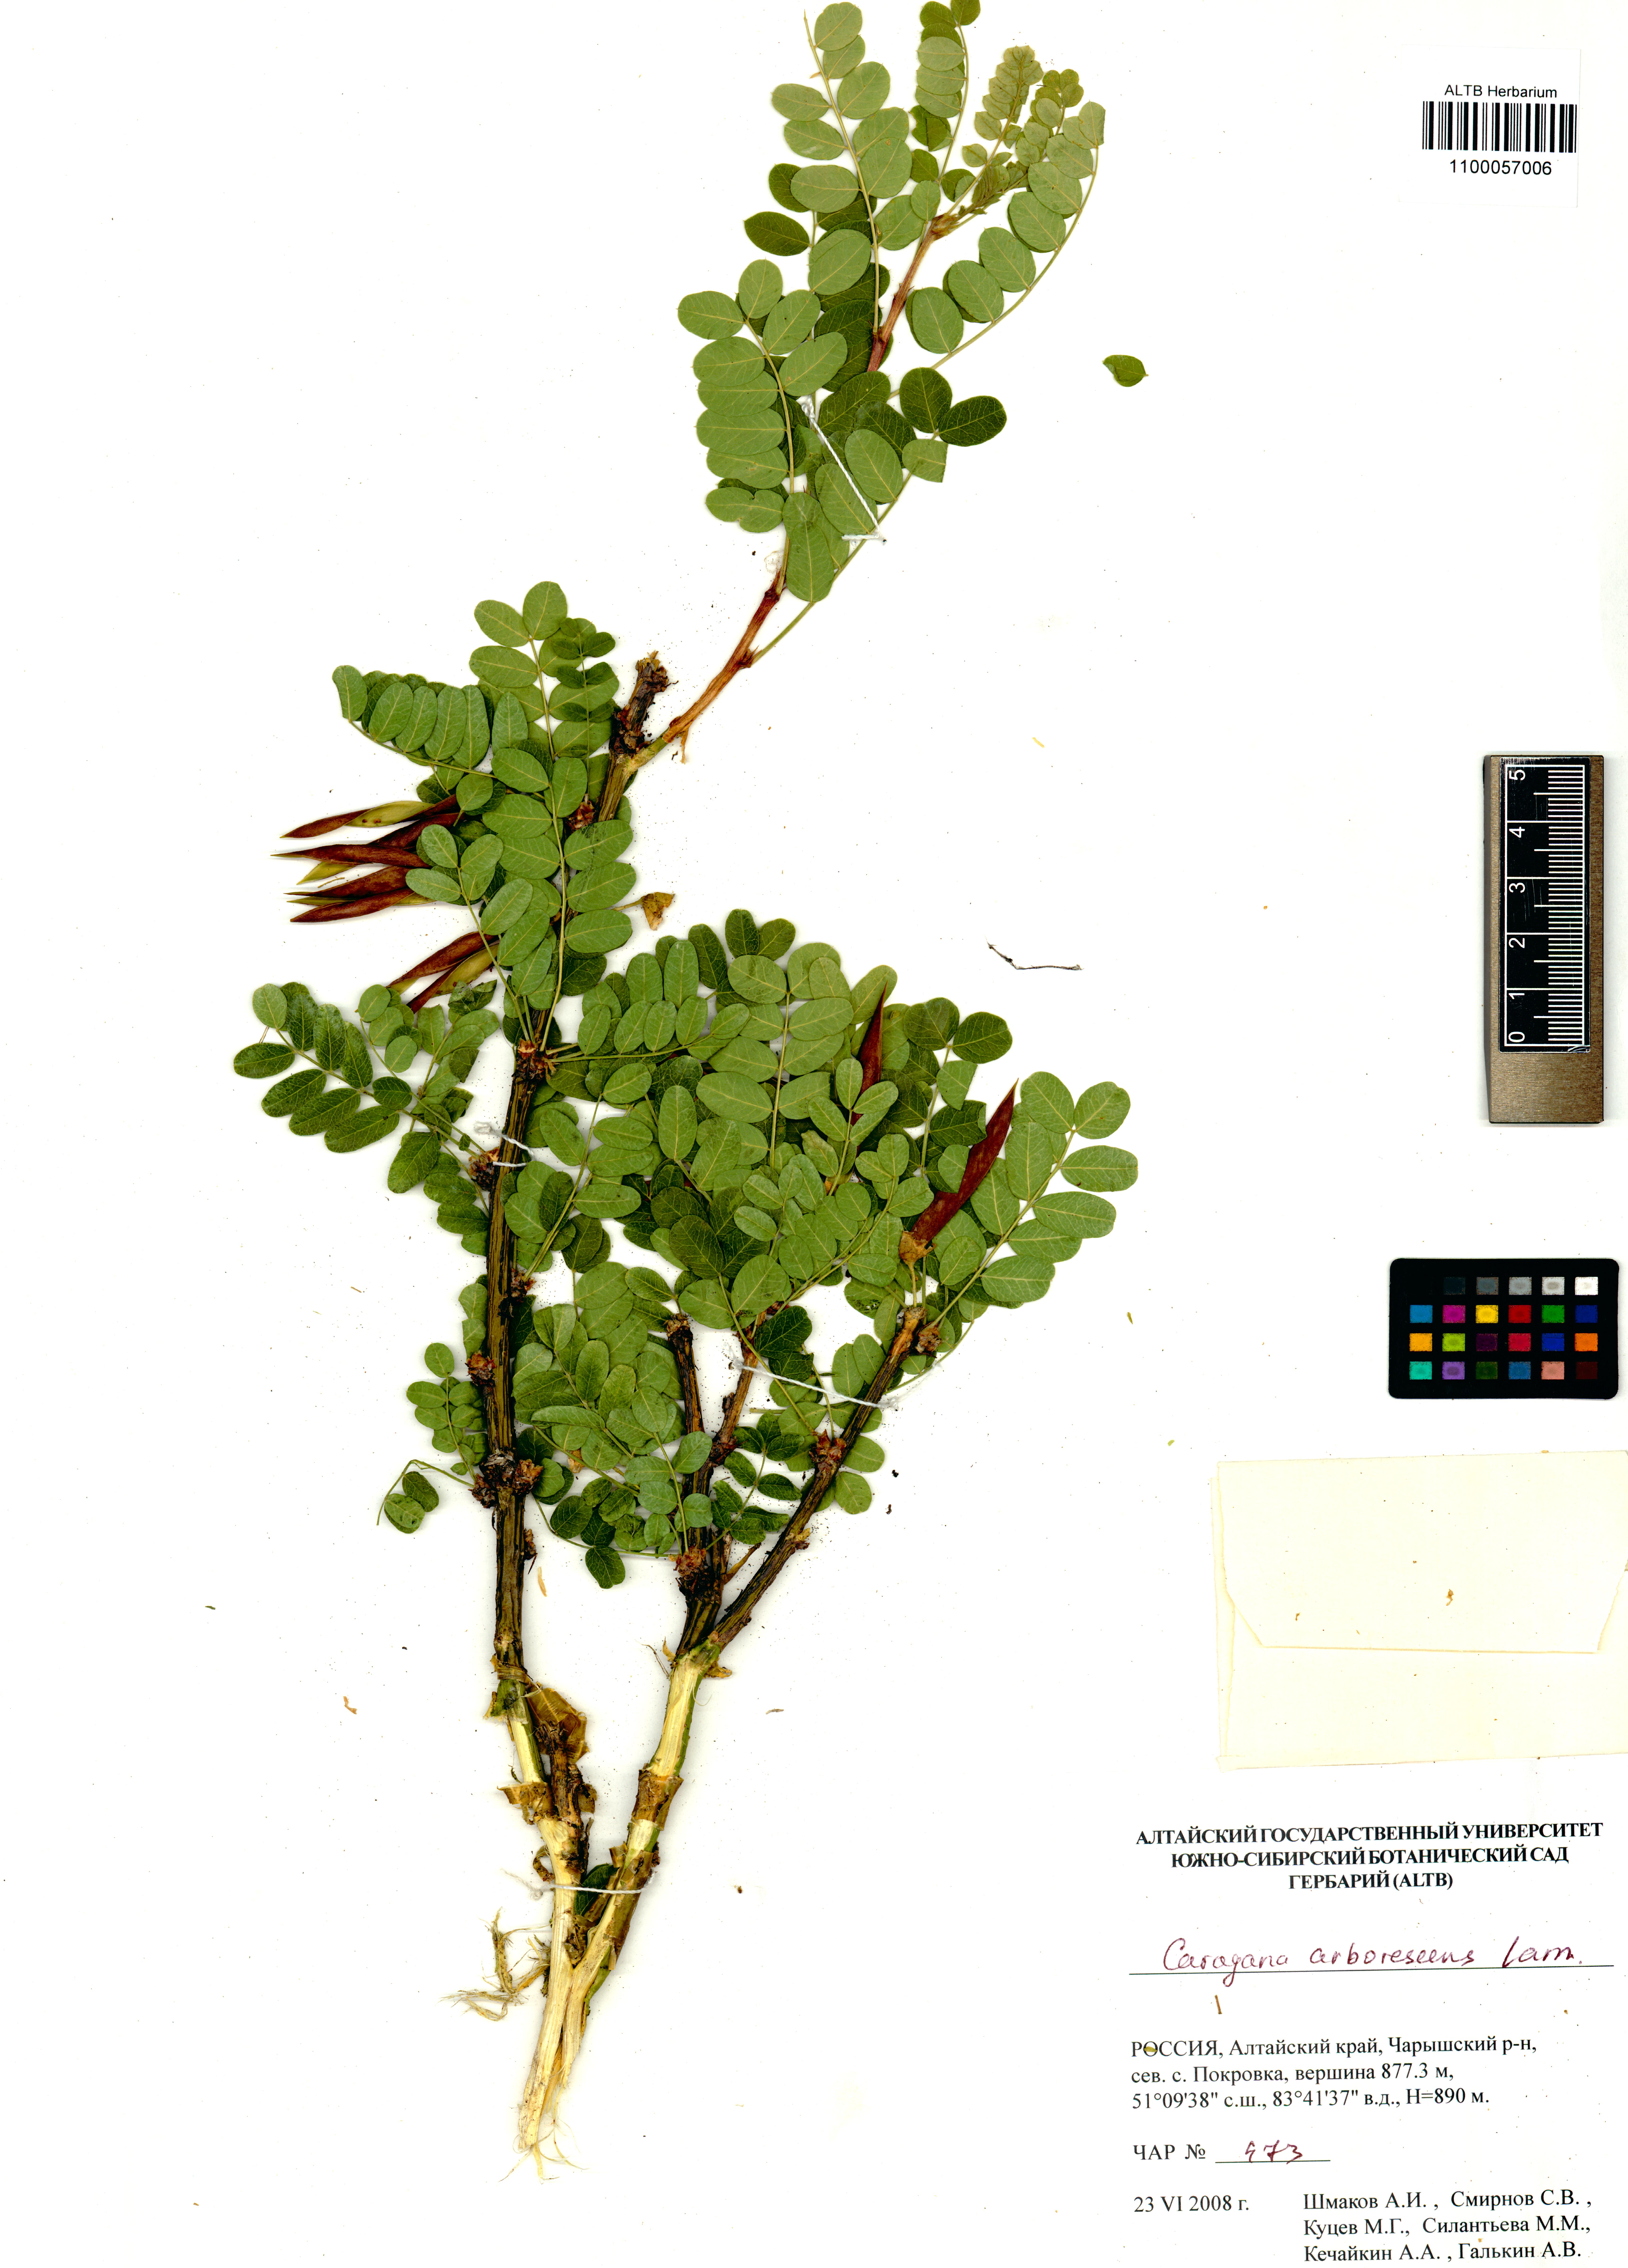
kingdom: Plantae
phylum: Tracheophyta
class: Magnoliopsida
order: Fabales
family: Fabaceae
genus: Caragana
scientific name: Caragana arborescens
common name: Siberian peashrub
